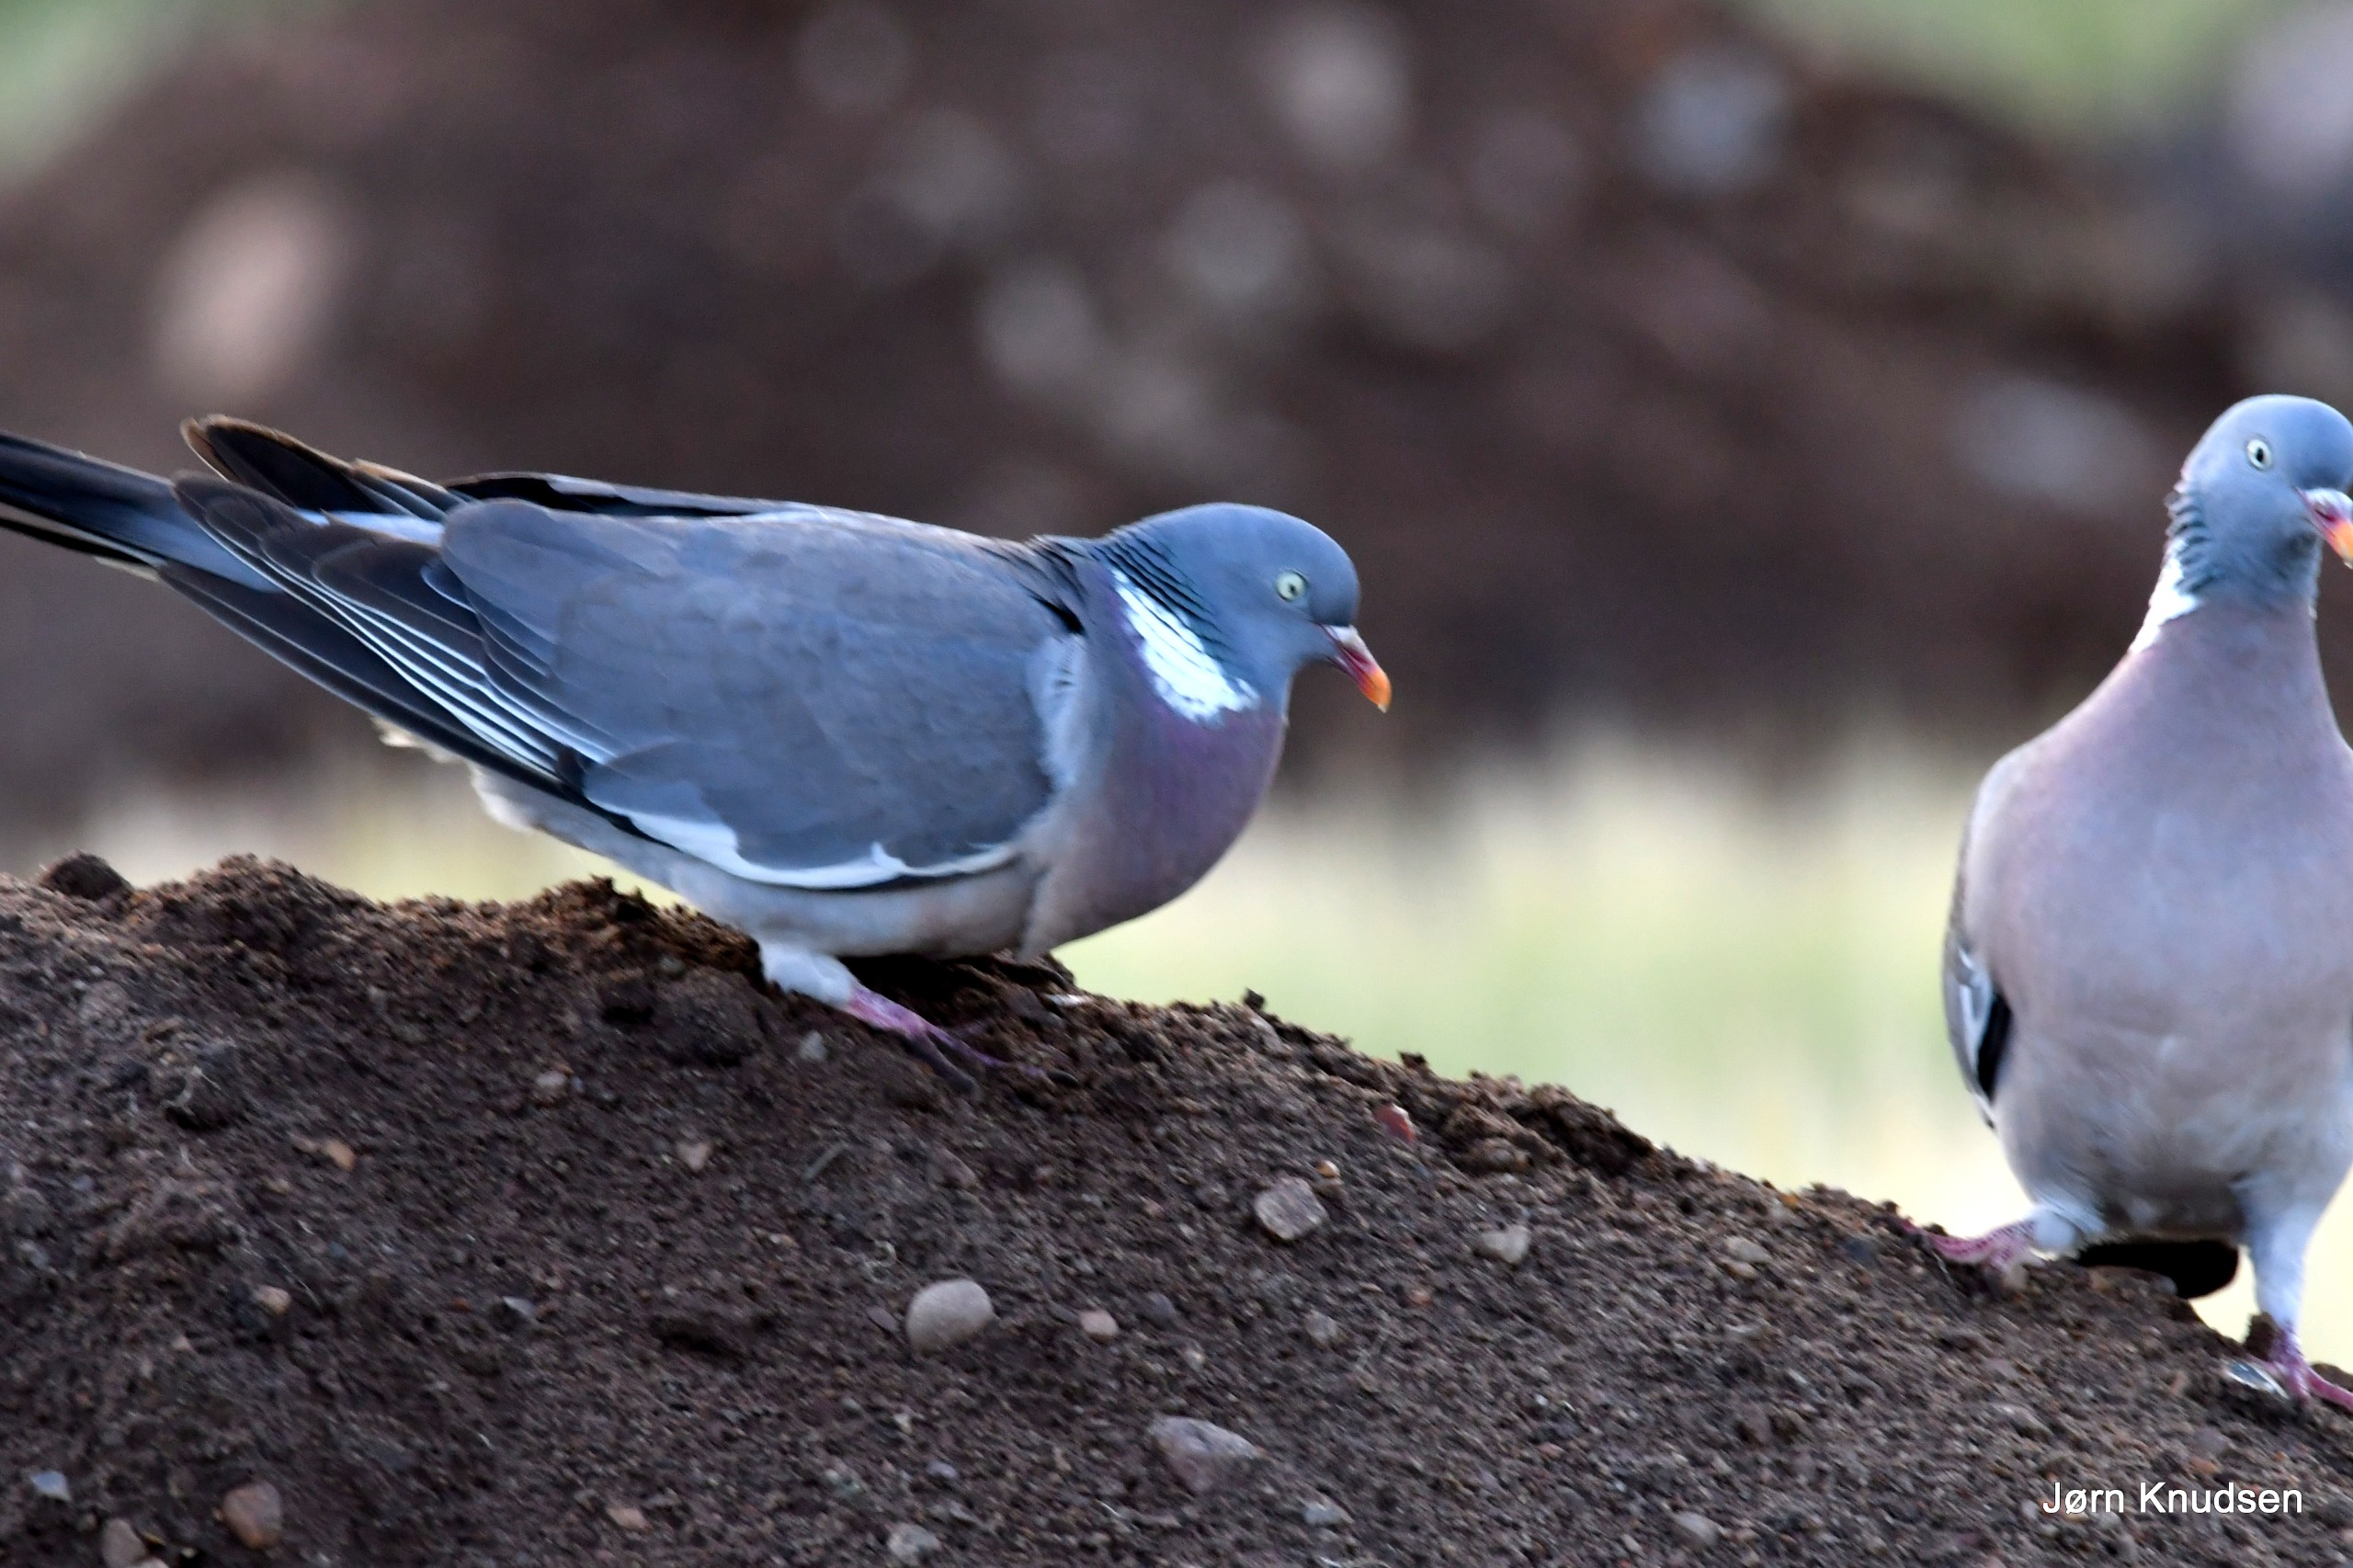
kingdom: Animalia
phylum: Chordata
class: Aves
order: Columbiformes
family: Columbidae
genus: Columba
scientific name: Columba palumbus
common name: Ringdue
